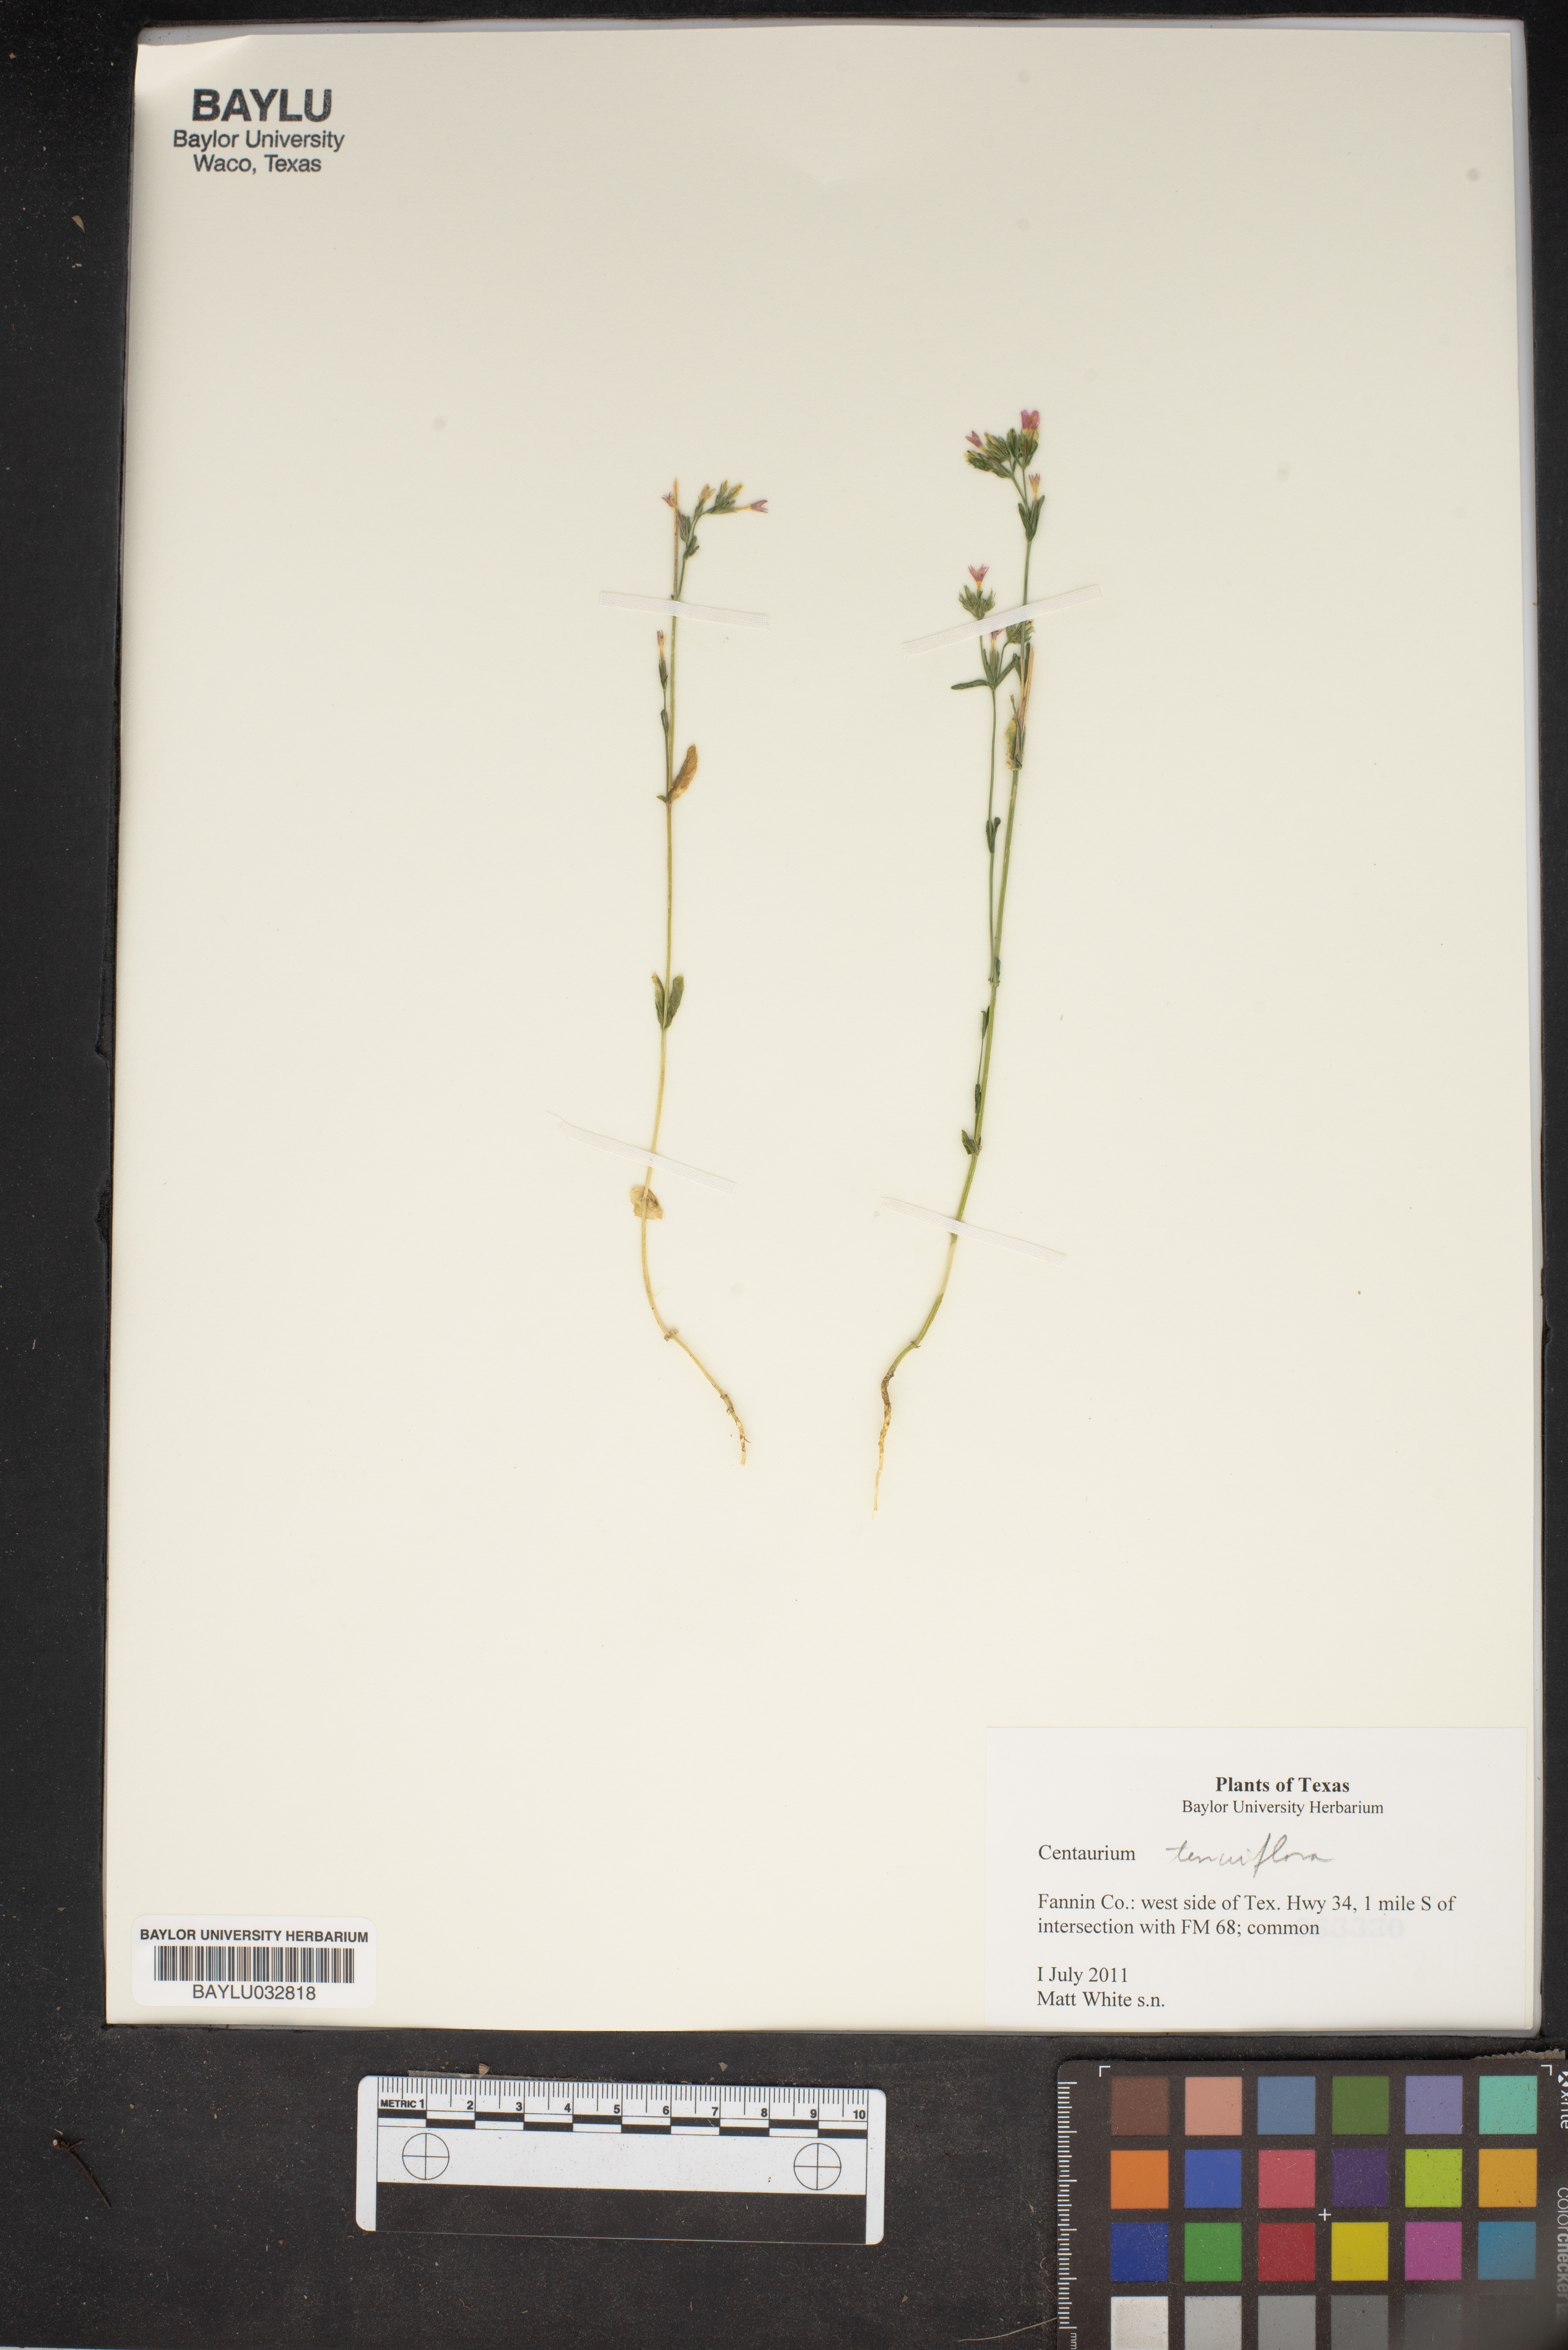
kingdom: Plantae
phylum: Tracheophyta
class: Magnoliopsida
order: Gentianales
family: Gentianaceae
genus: Centaurium
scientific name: Centaurium tenuiflorum
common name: Slender centaury
